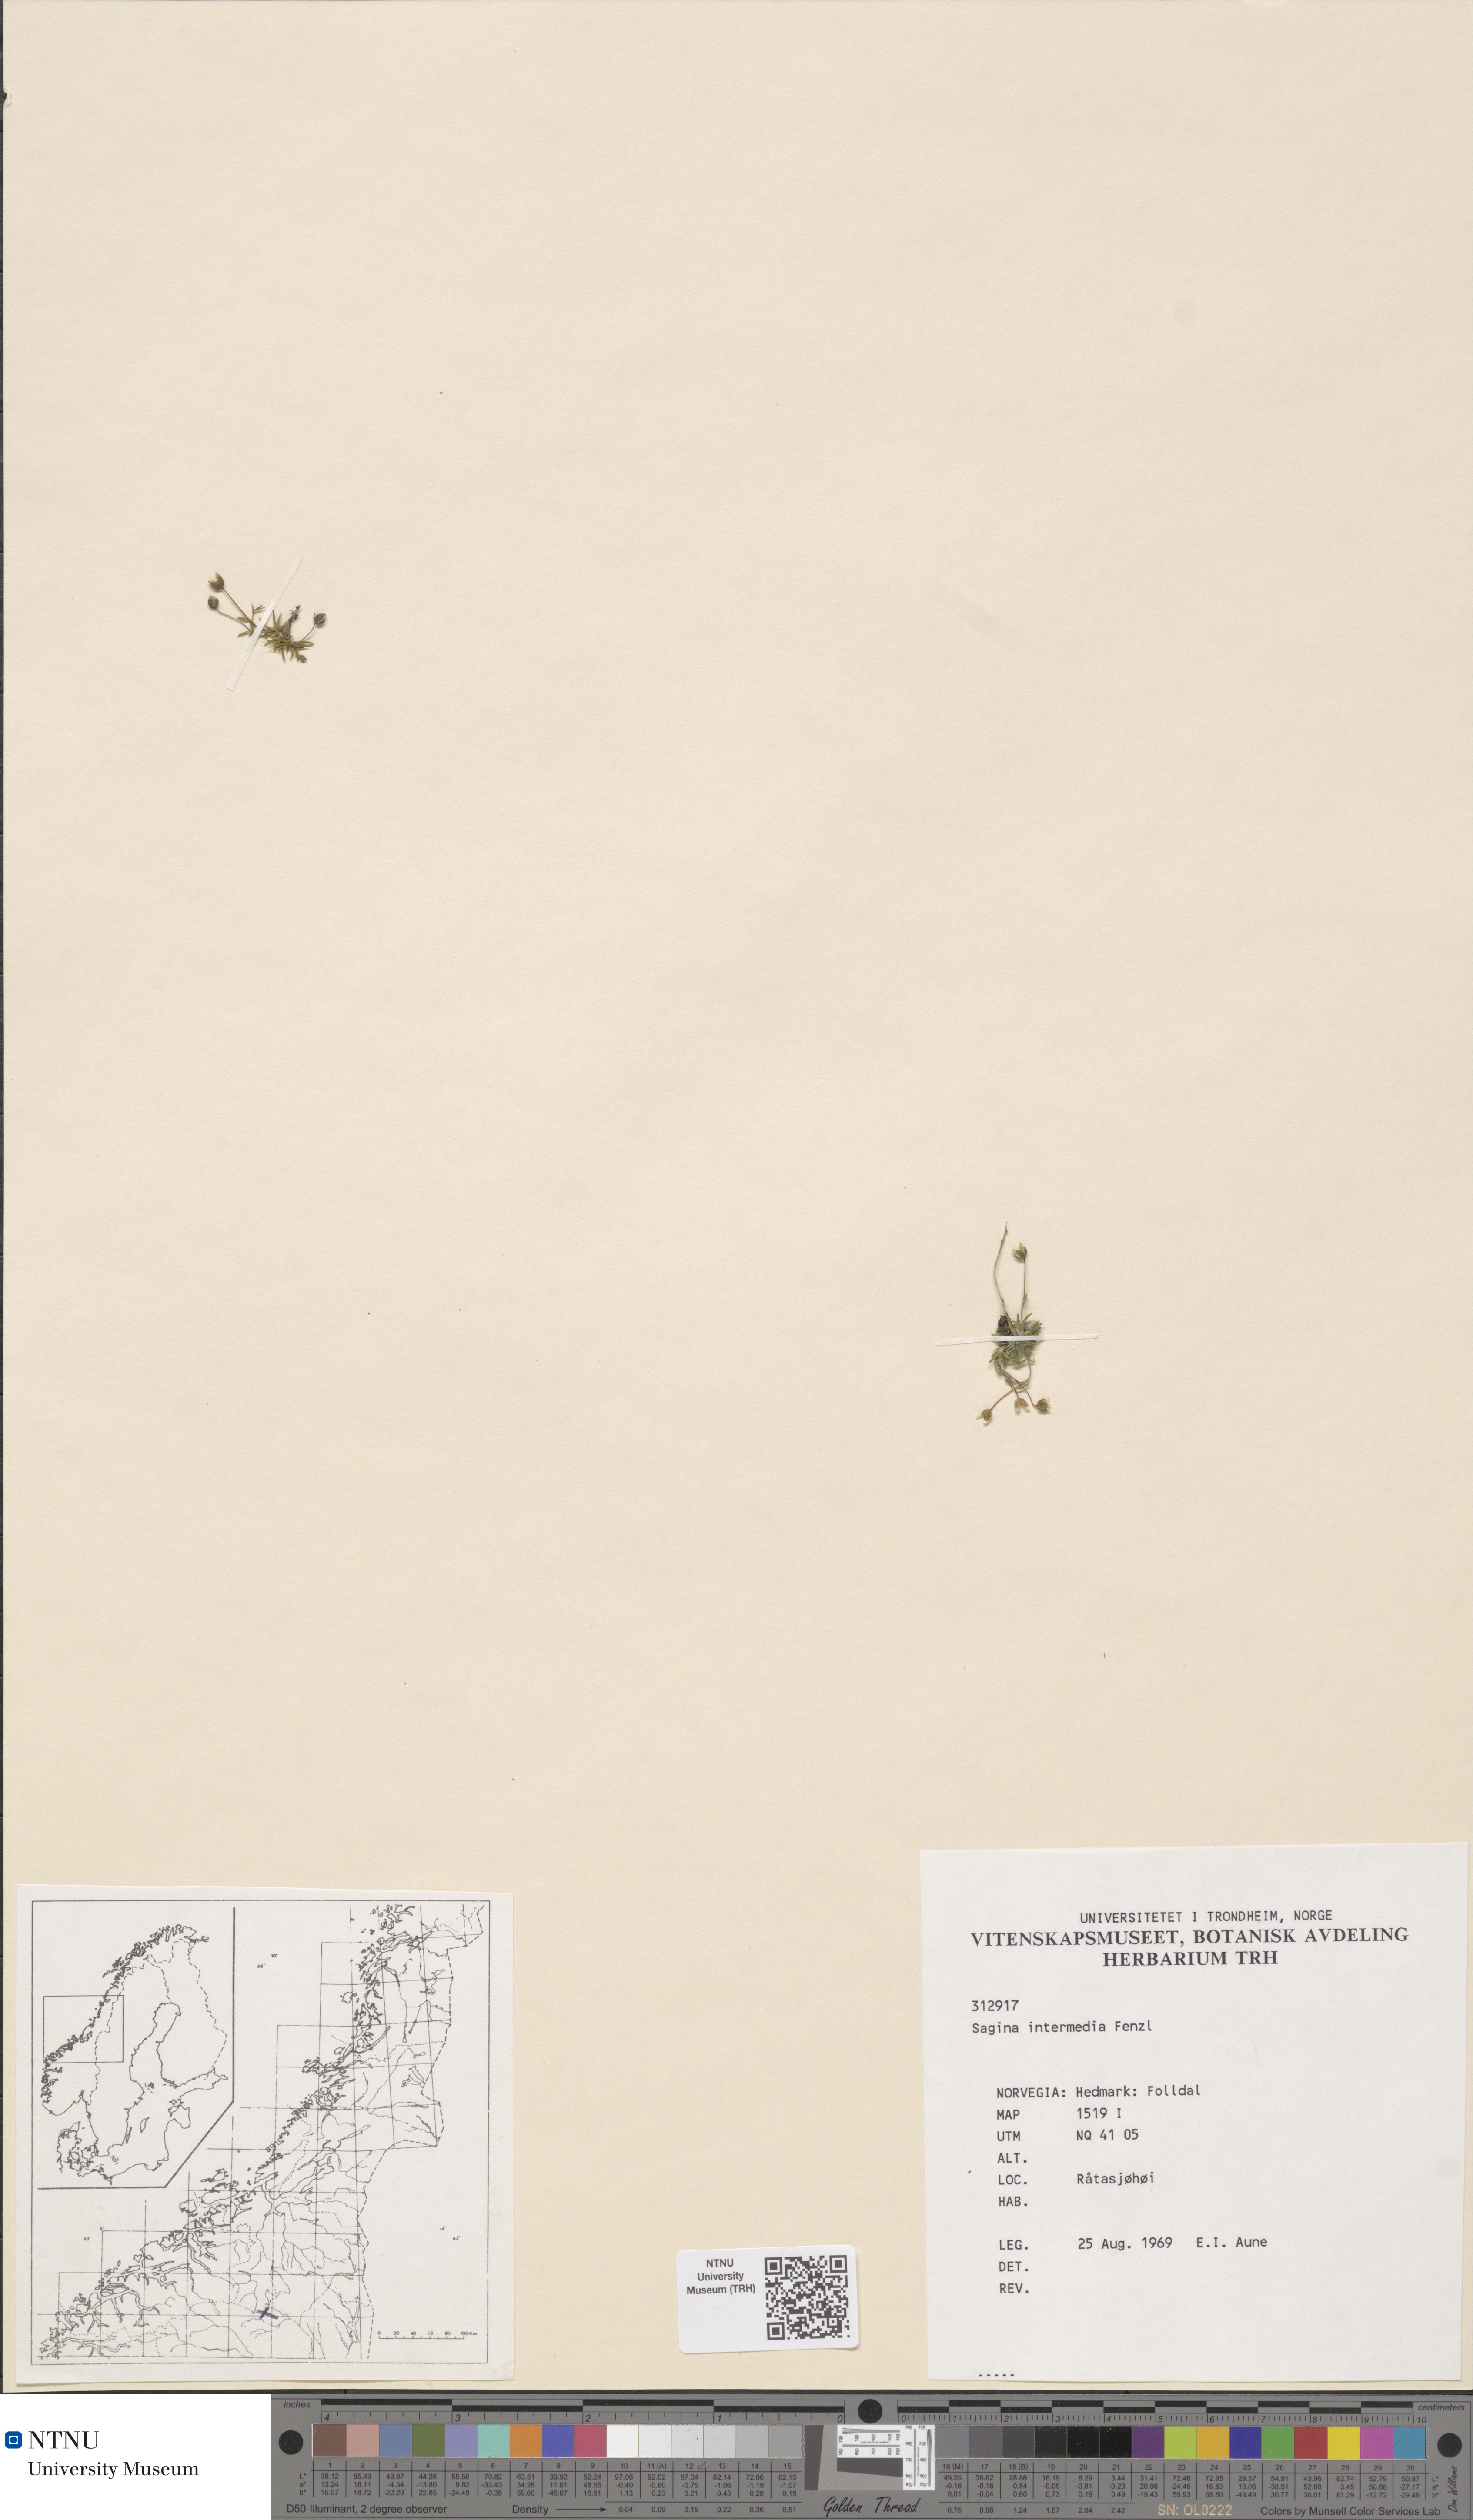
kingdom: Plantae
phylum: Tracheophyta
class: Magnoliopsida
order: Caryophyllales
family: Caryophyllaceae
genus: Sagina
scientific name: Sagina nivalis
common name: Snow pearlwort
